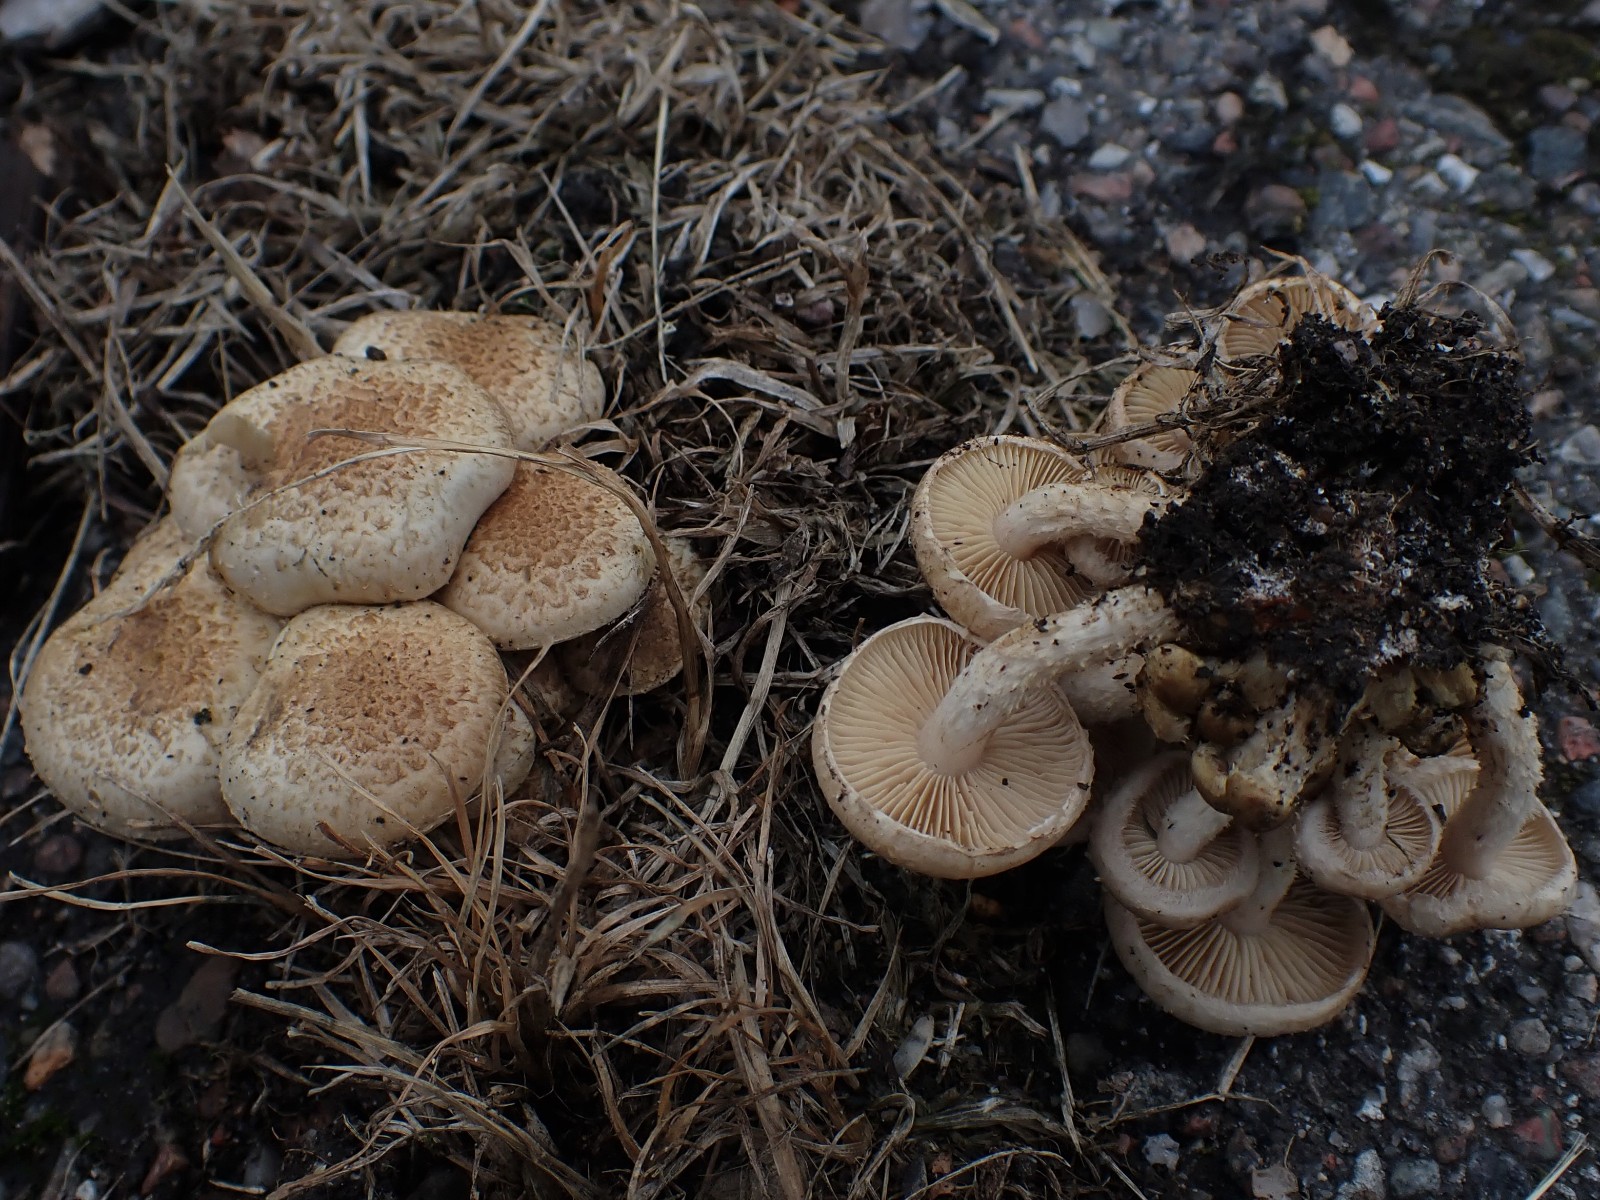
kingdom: Fungi
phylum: Basidiomycota
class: Agaricomycetes
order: Agaricales
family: Strophariaceae
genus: Pholiota
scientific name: Pholiota gummosa
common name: grøngul skælhat
